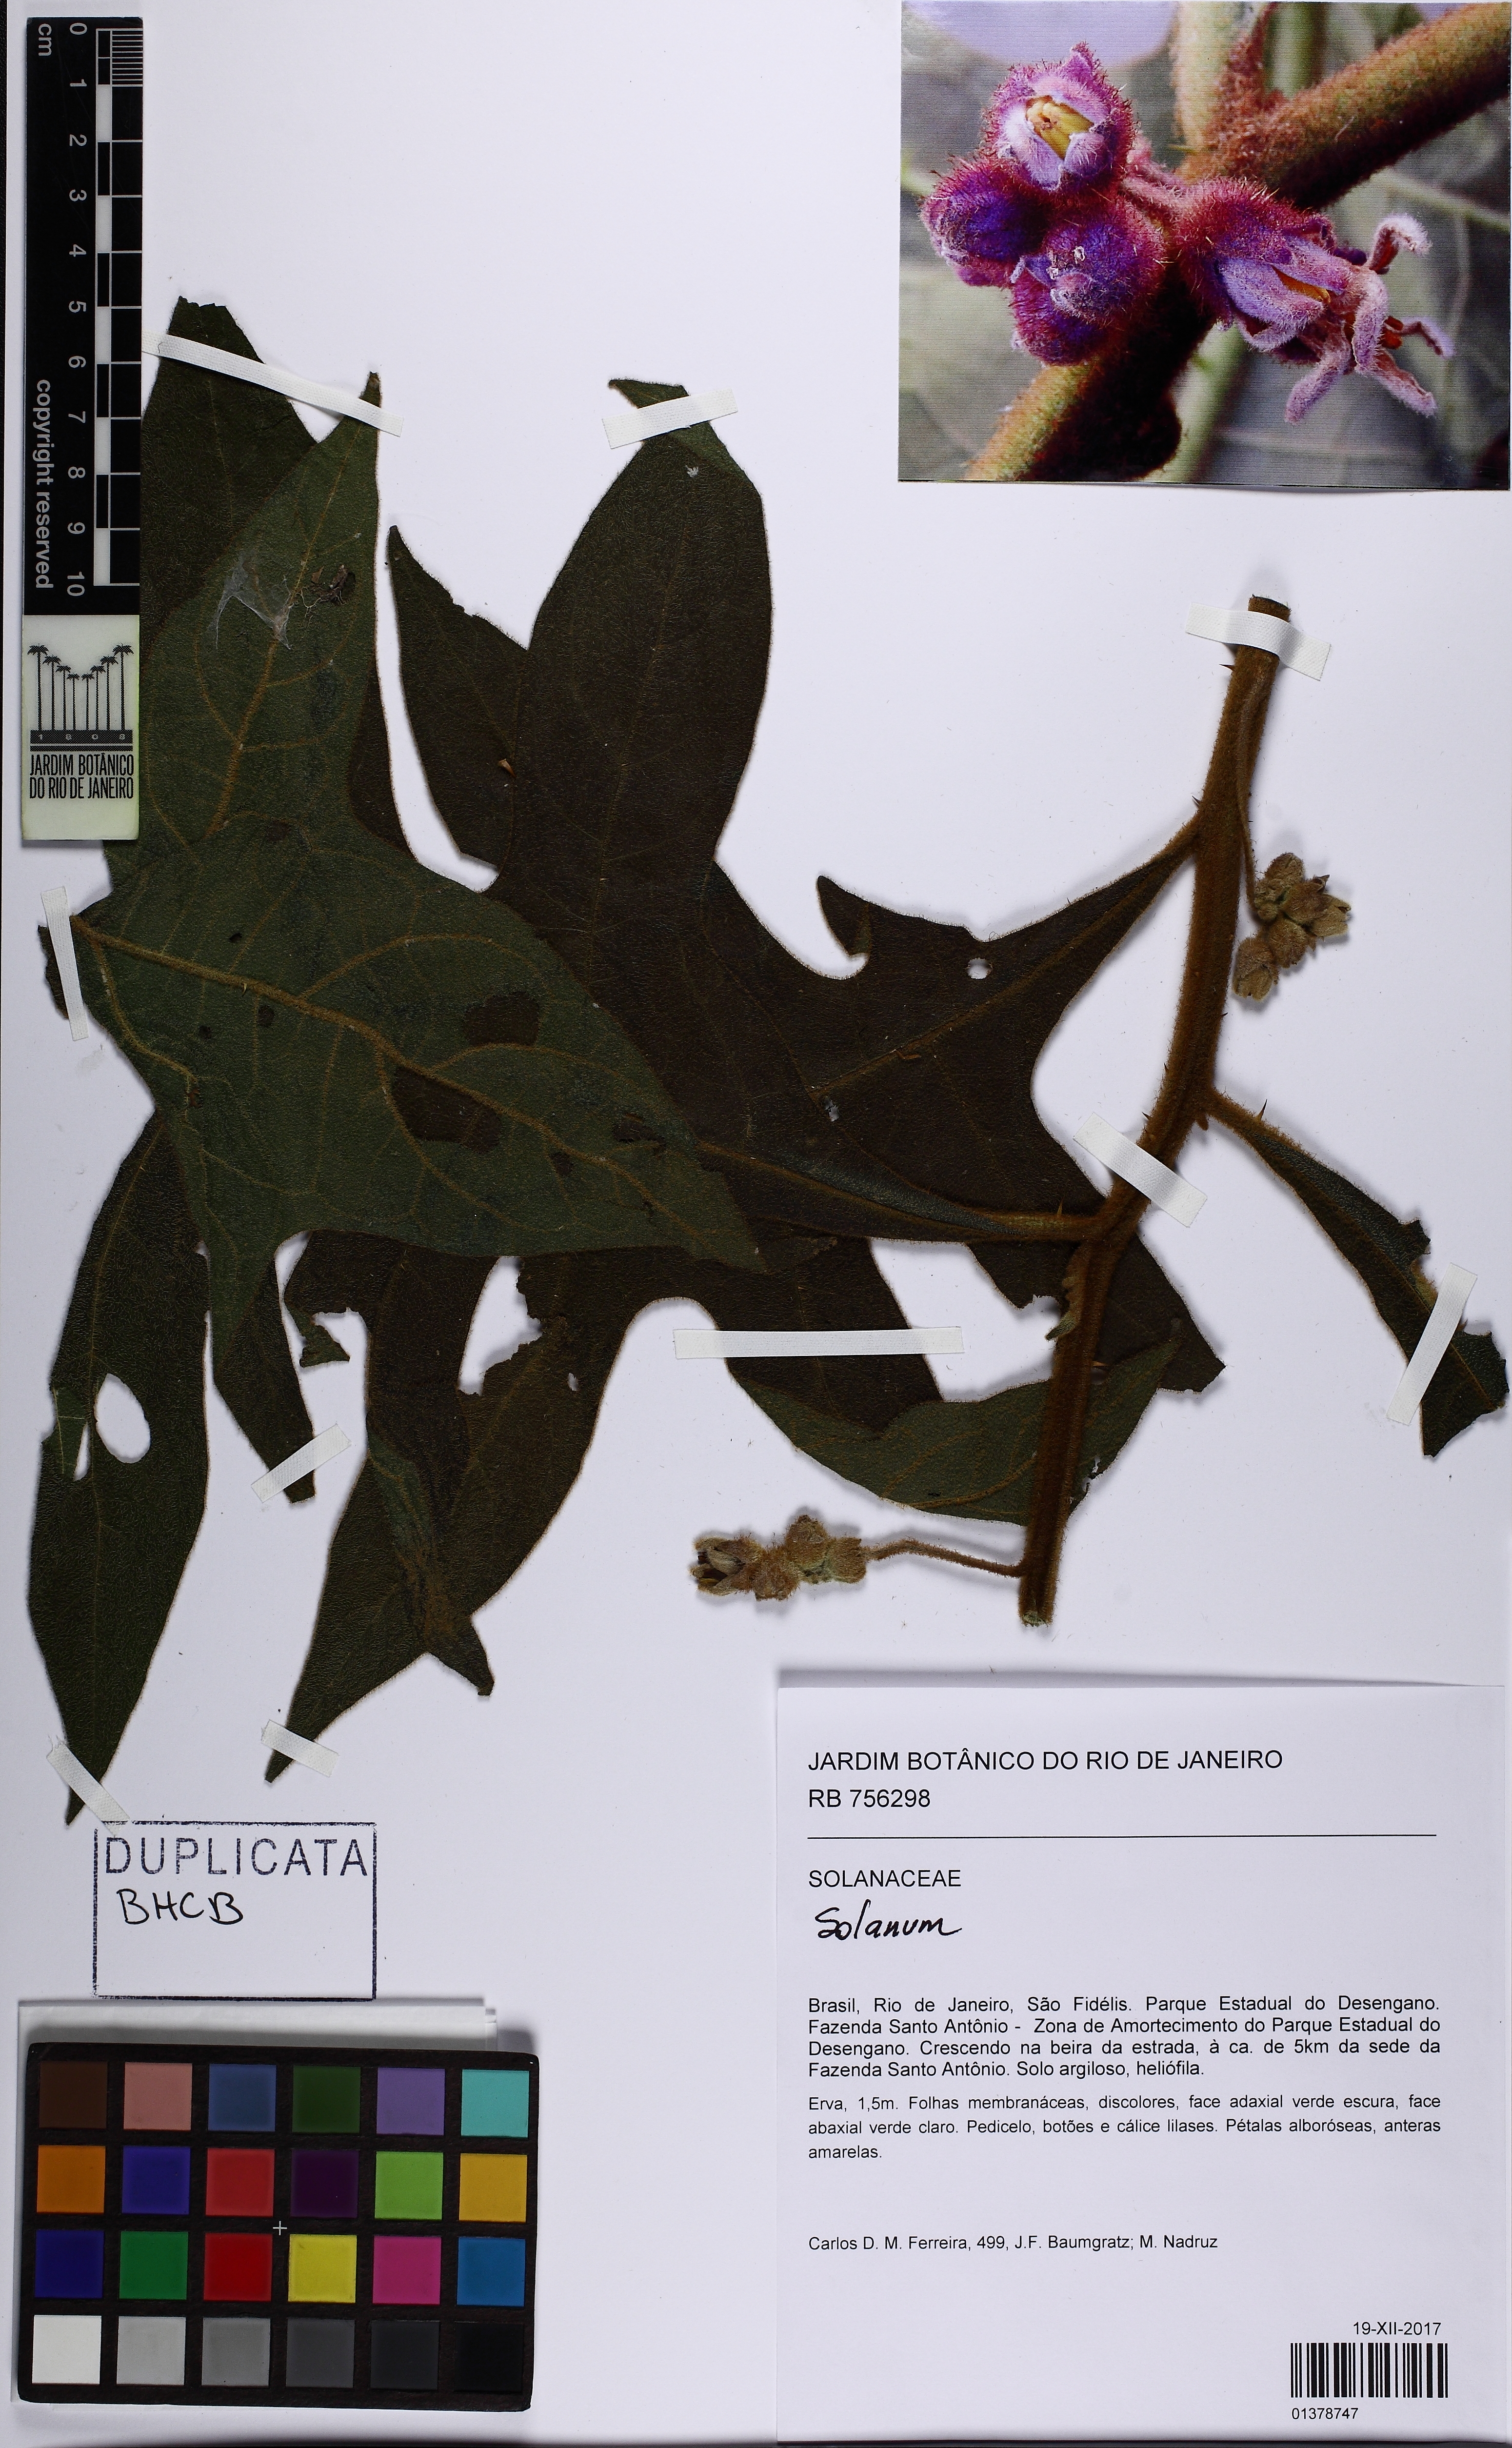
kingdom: Plantae
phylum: Tracheophyta
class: Magnoliopsida
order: Solanales
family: Solanaceae
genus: Solanum
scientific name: Solanum
